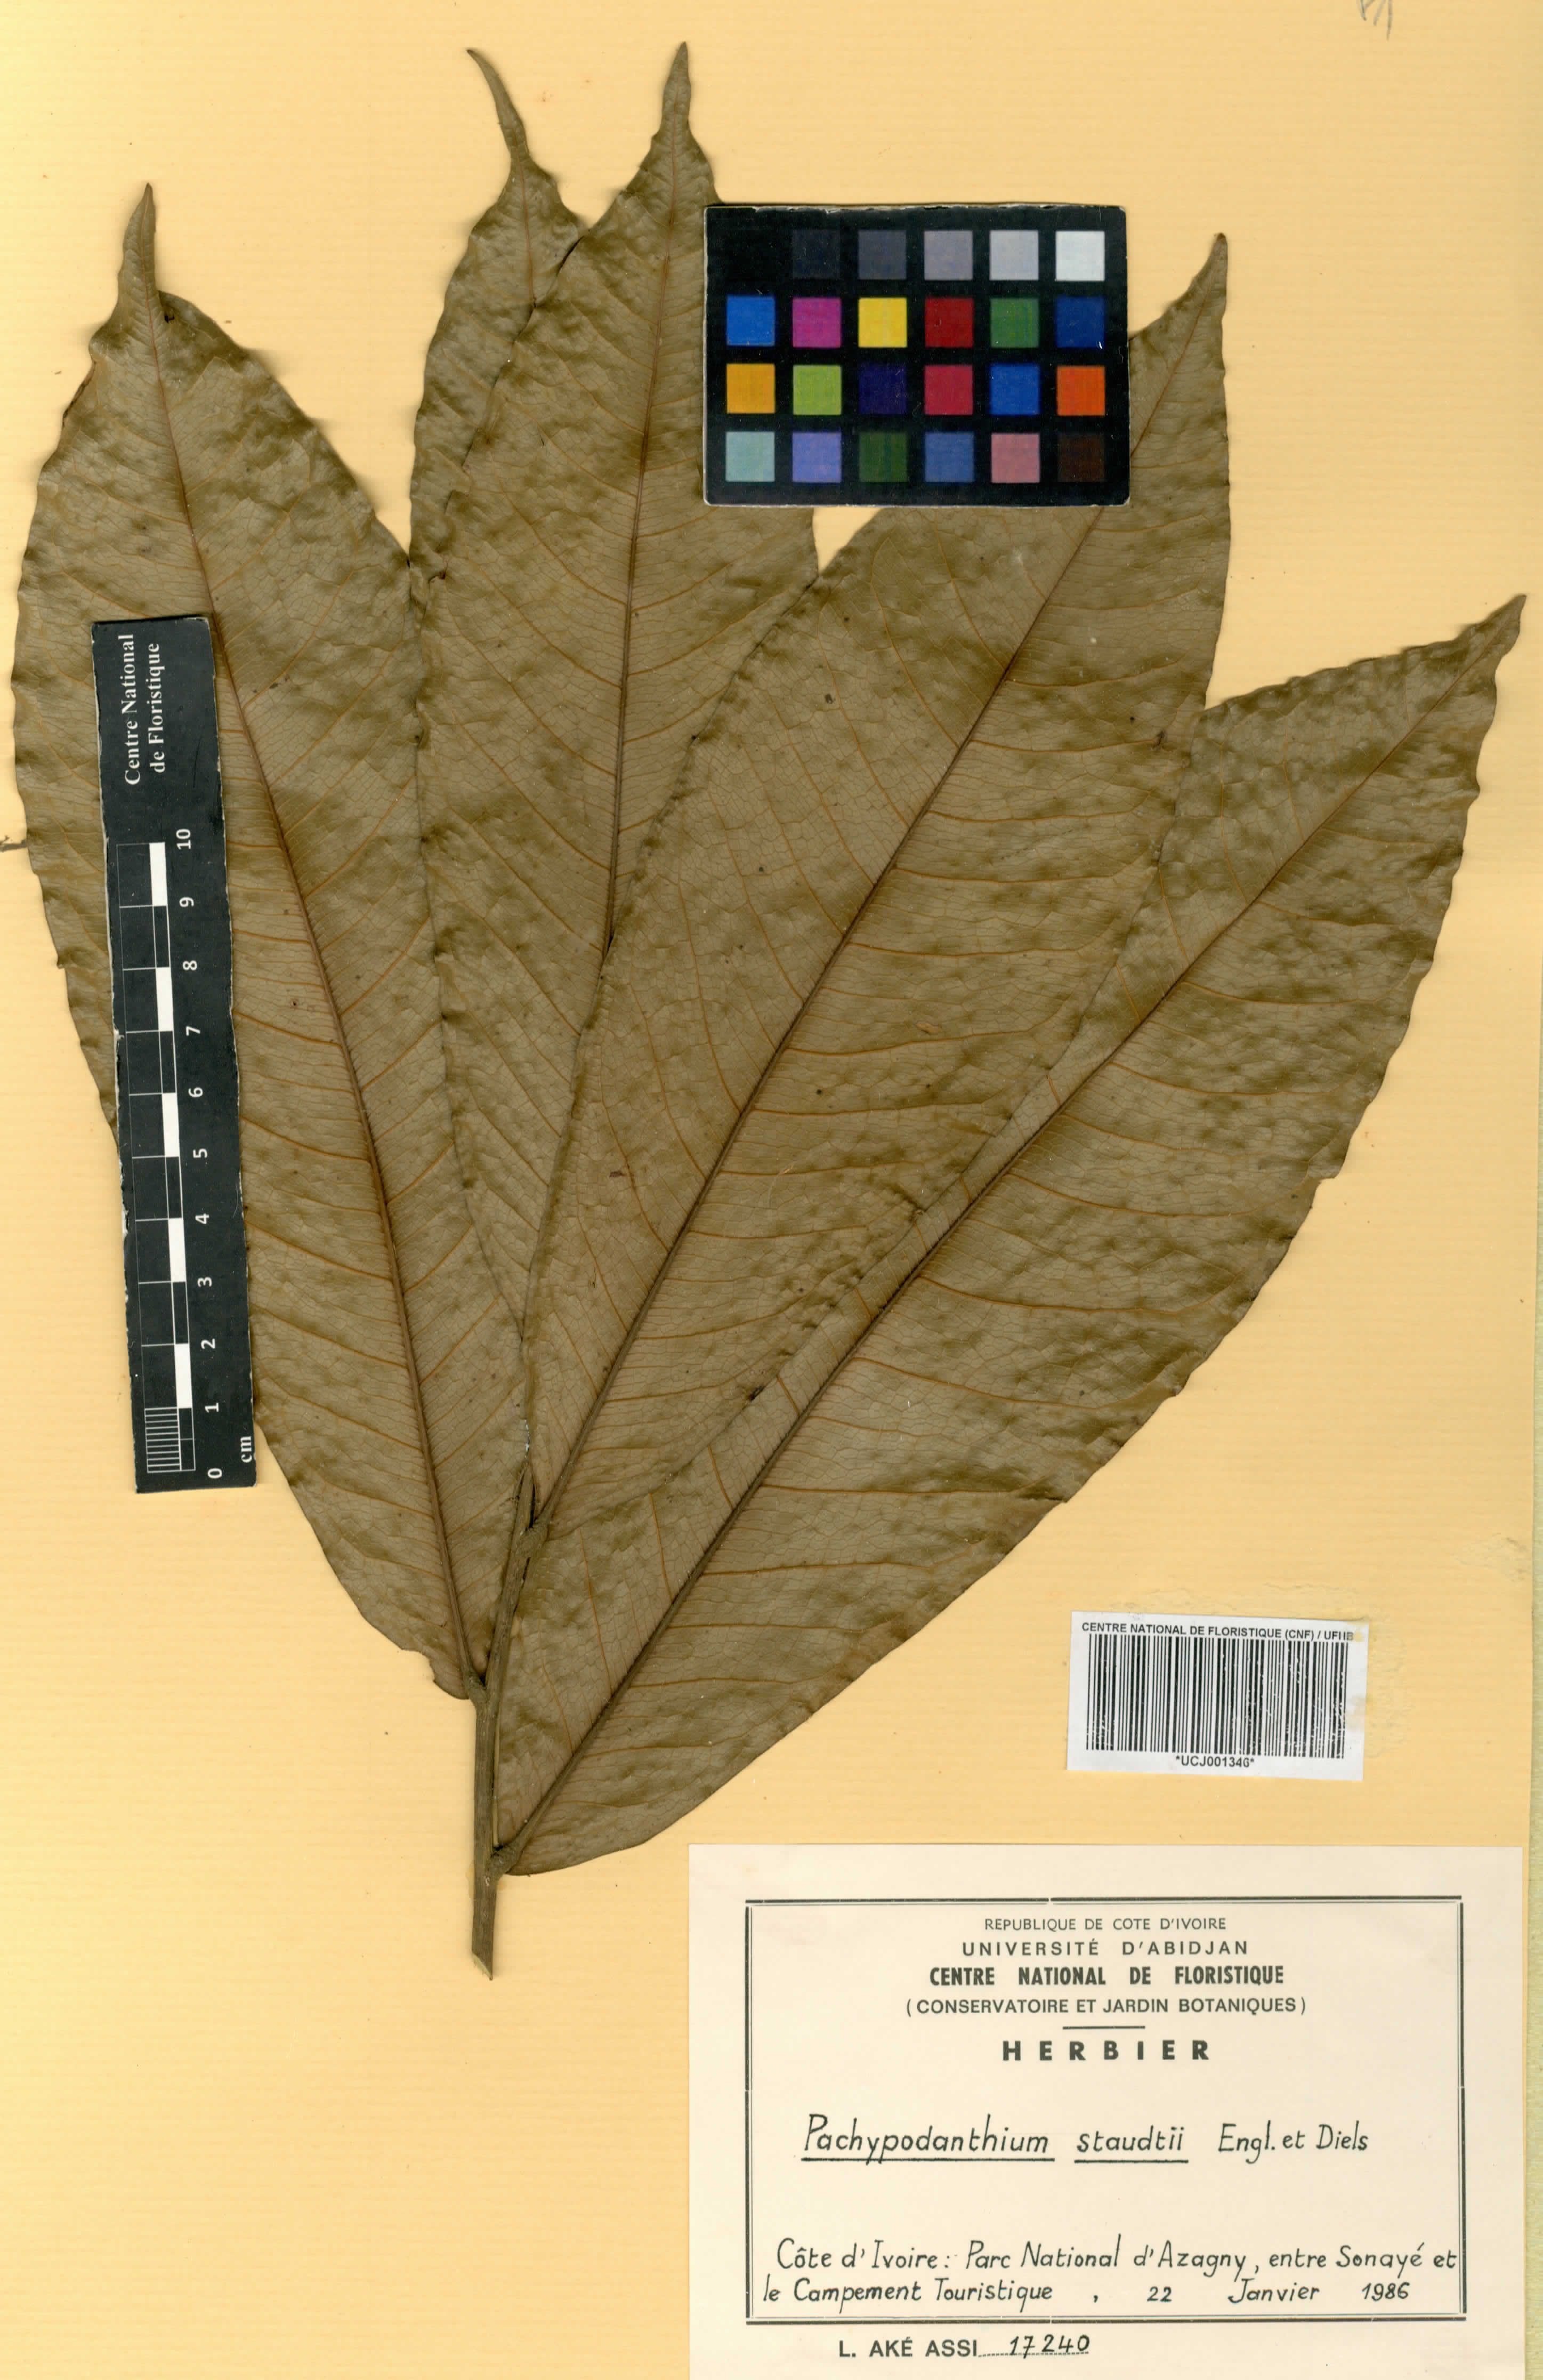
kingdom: Plantae
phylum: Tracheophyta
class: Magnoliopsida
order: Magnoliales
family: Annonaceae
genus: Duguetia
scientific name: Duguetia staudtii
